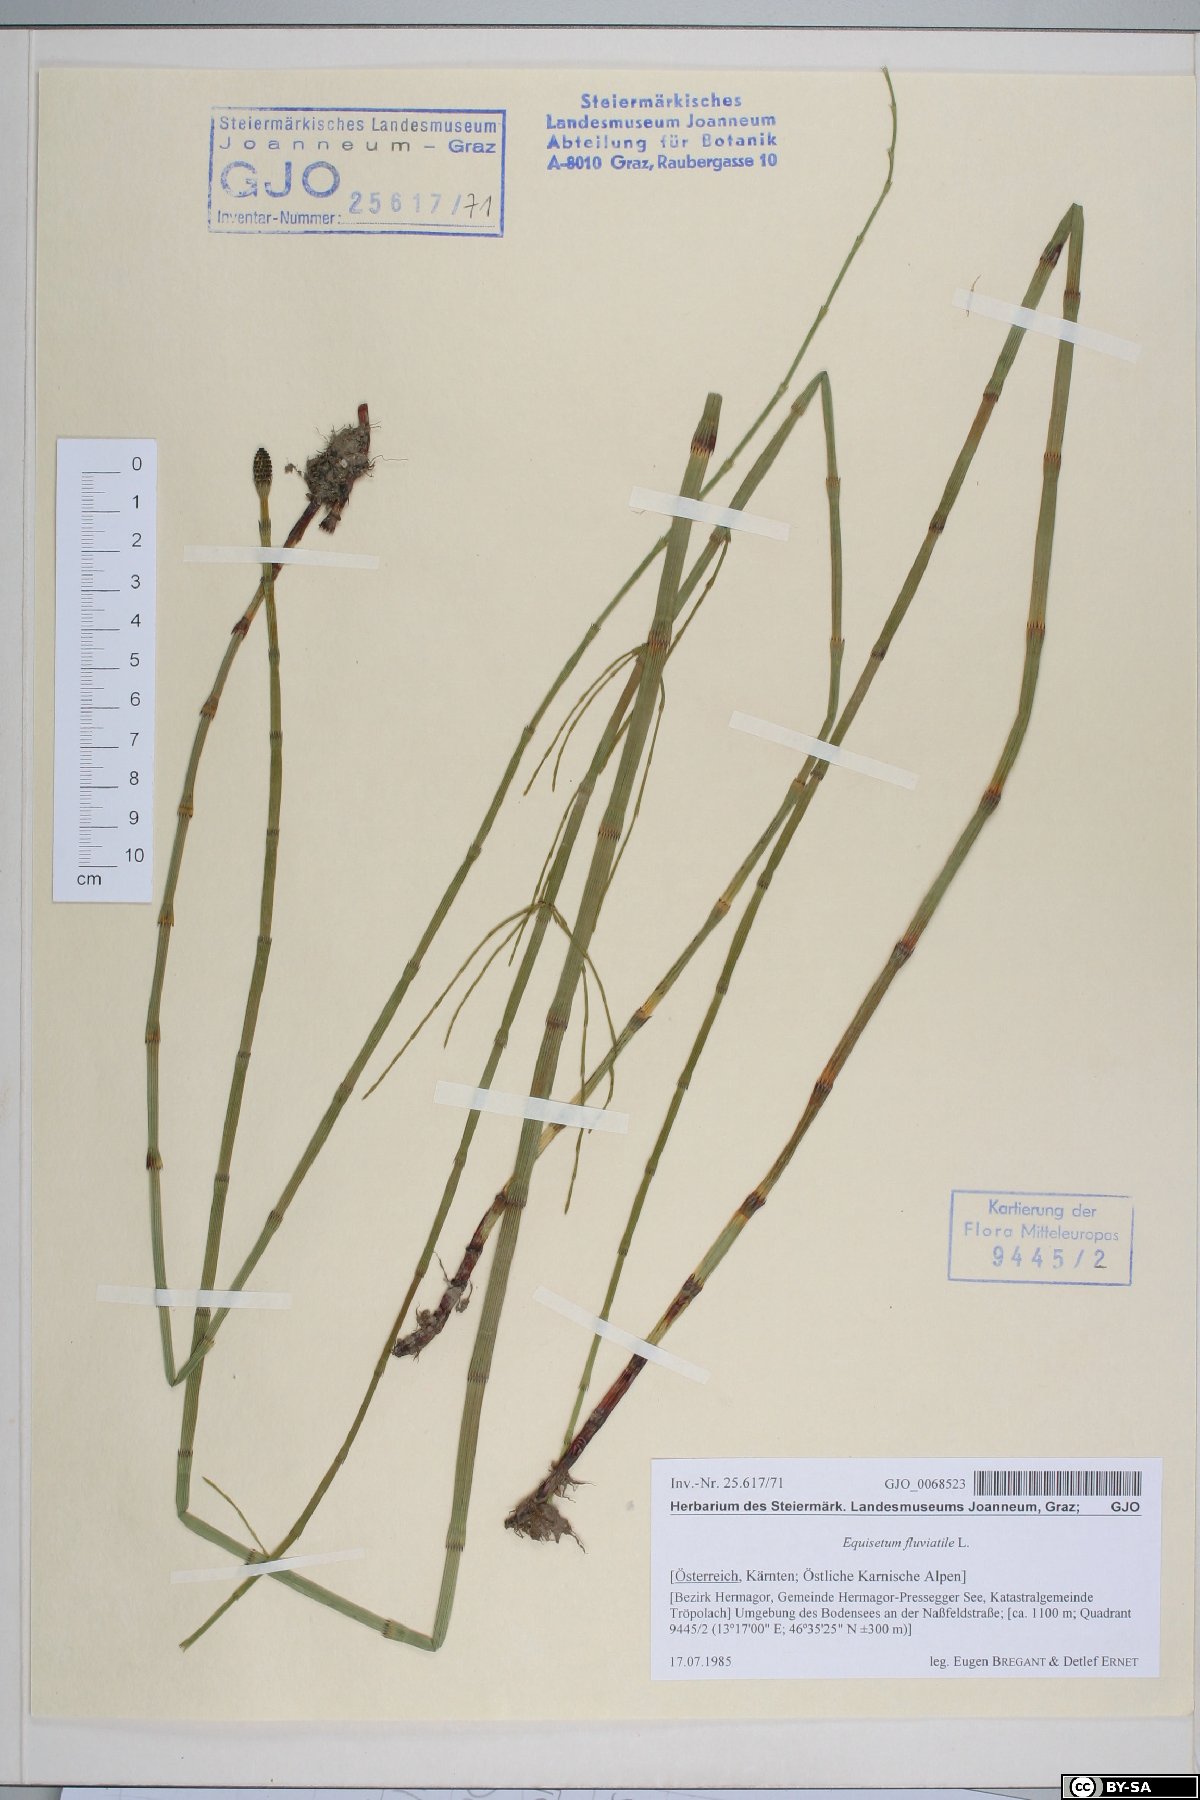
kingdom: Plantae
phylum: Tracheophyta
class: Polypodiopsida
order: Equisetales
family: Equisetaceae
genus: Equisetum
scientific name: Equisetum fluviatile
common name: Water horsetail
